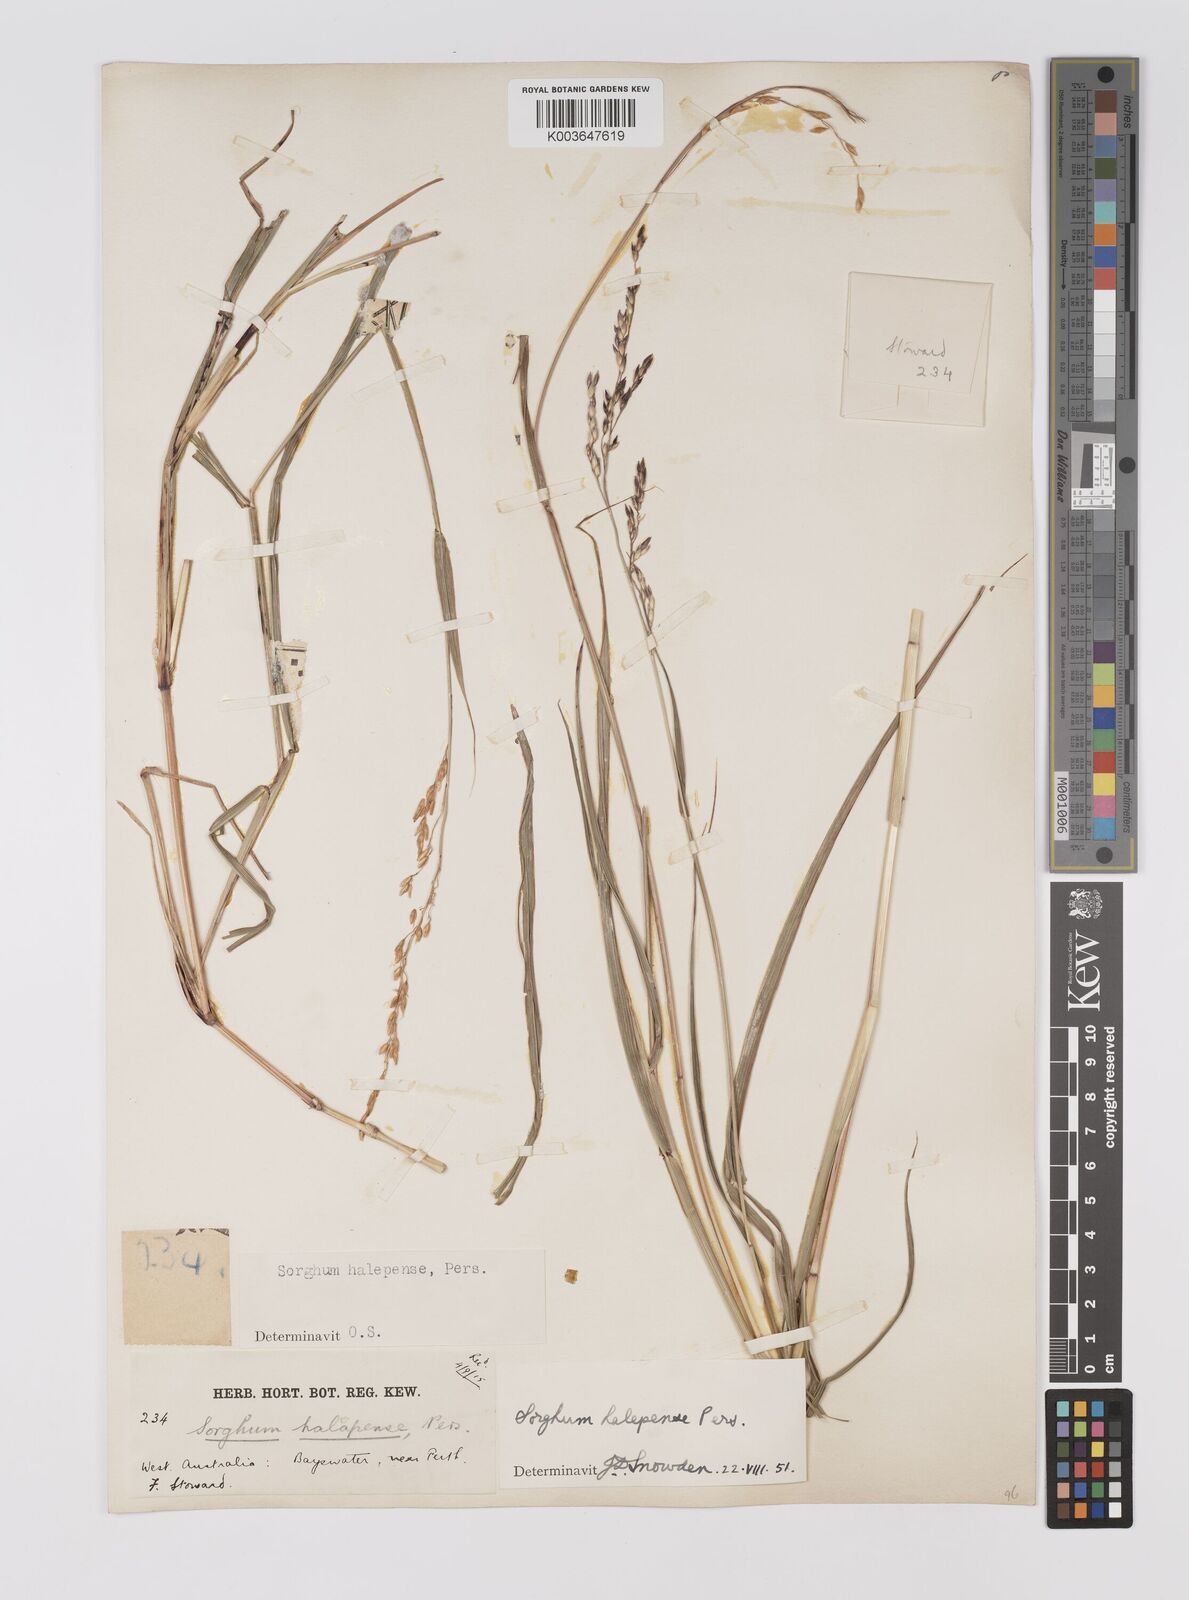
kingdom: Plantae
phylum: Tracheophyta
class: Liliopsida
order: Poales
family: Poaceae
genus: Sorghum
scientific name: Sorghum halepense
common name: Johnson-grass
